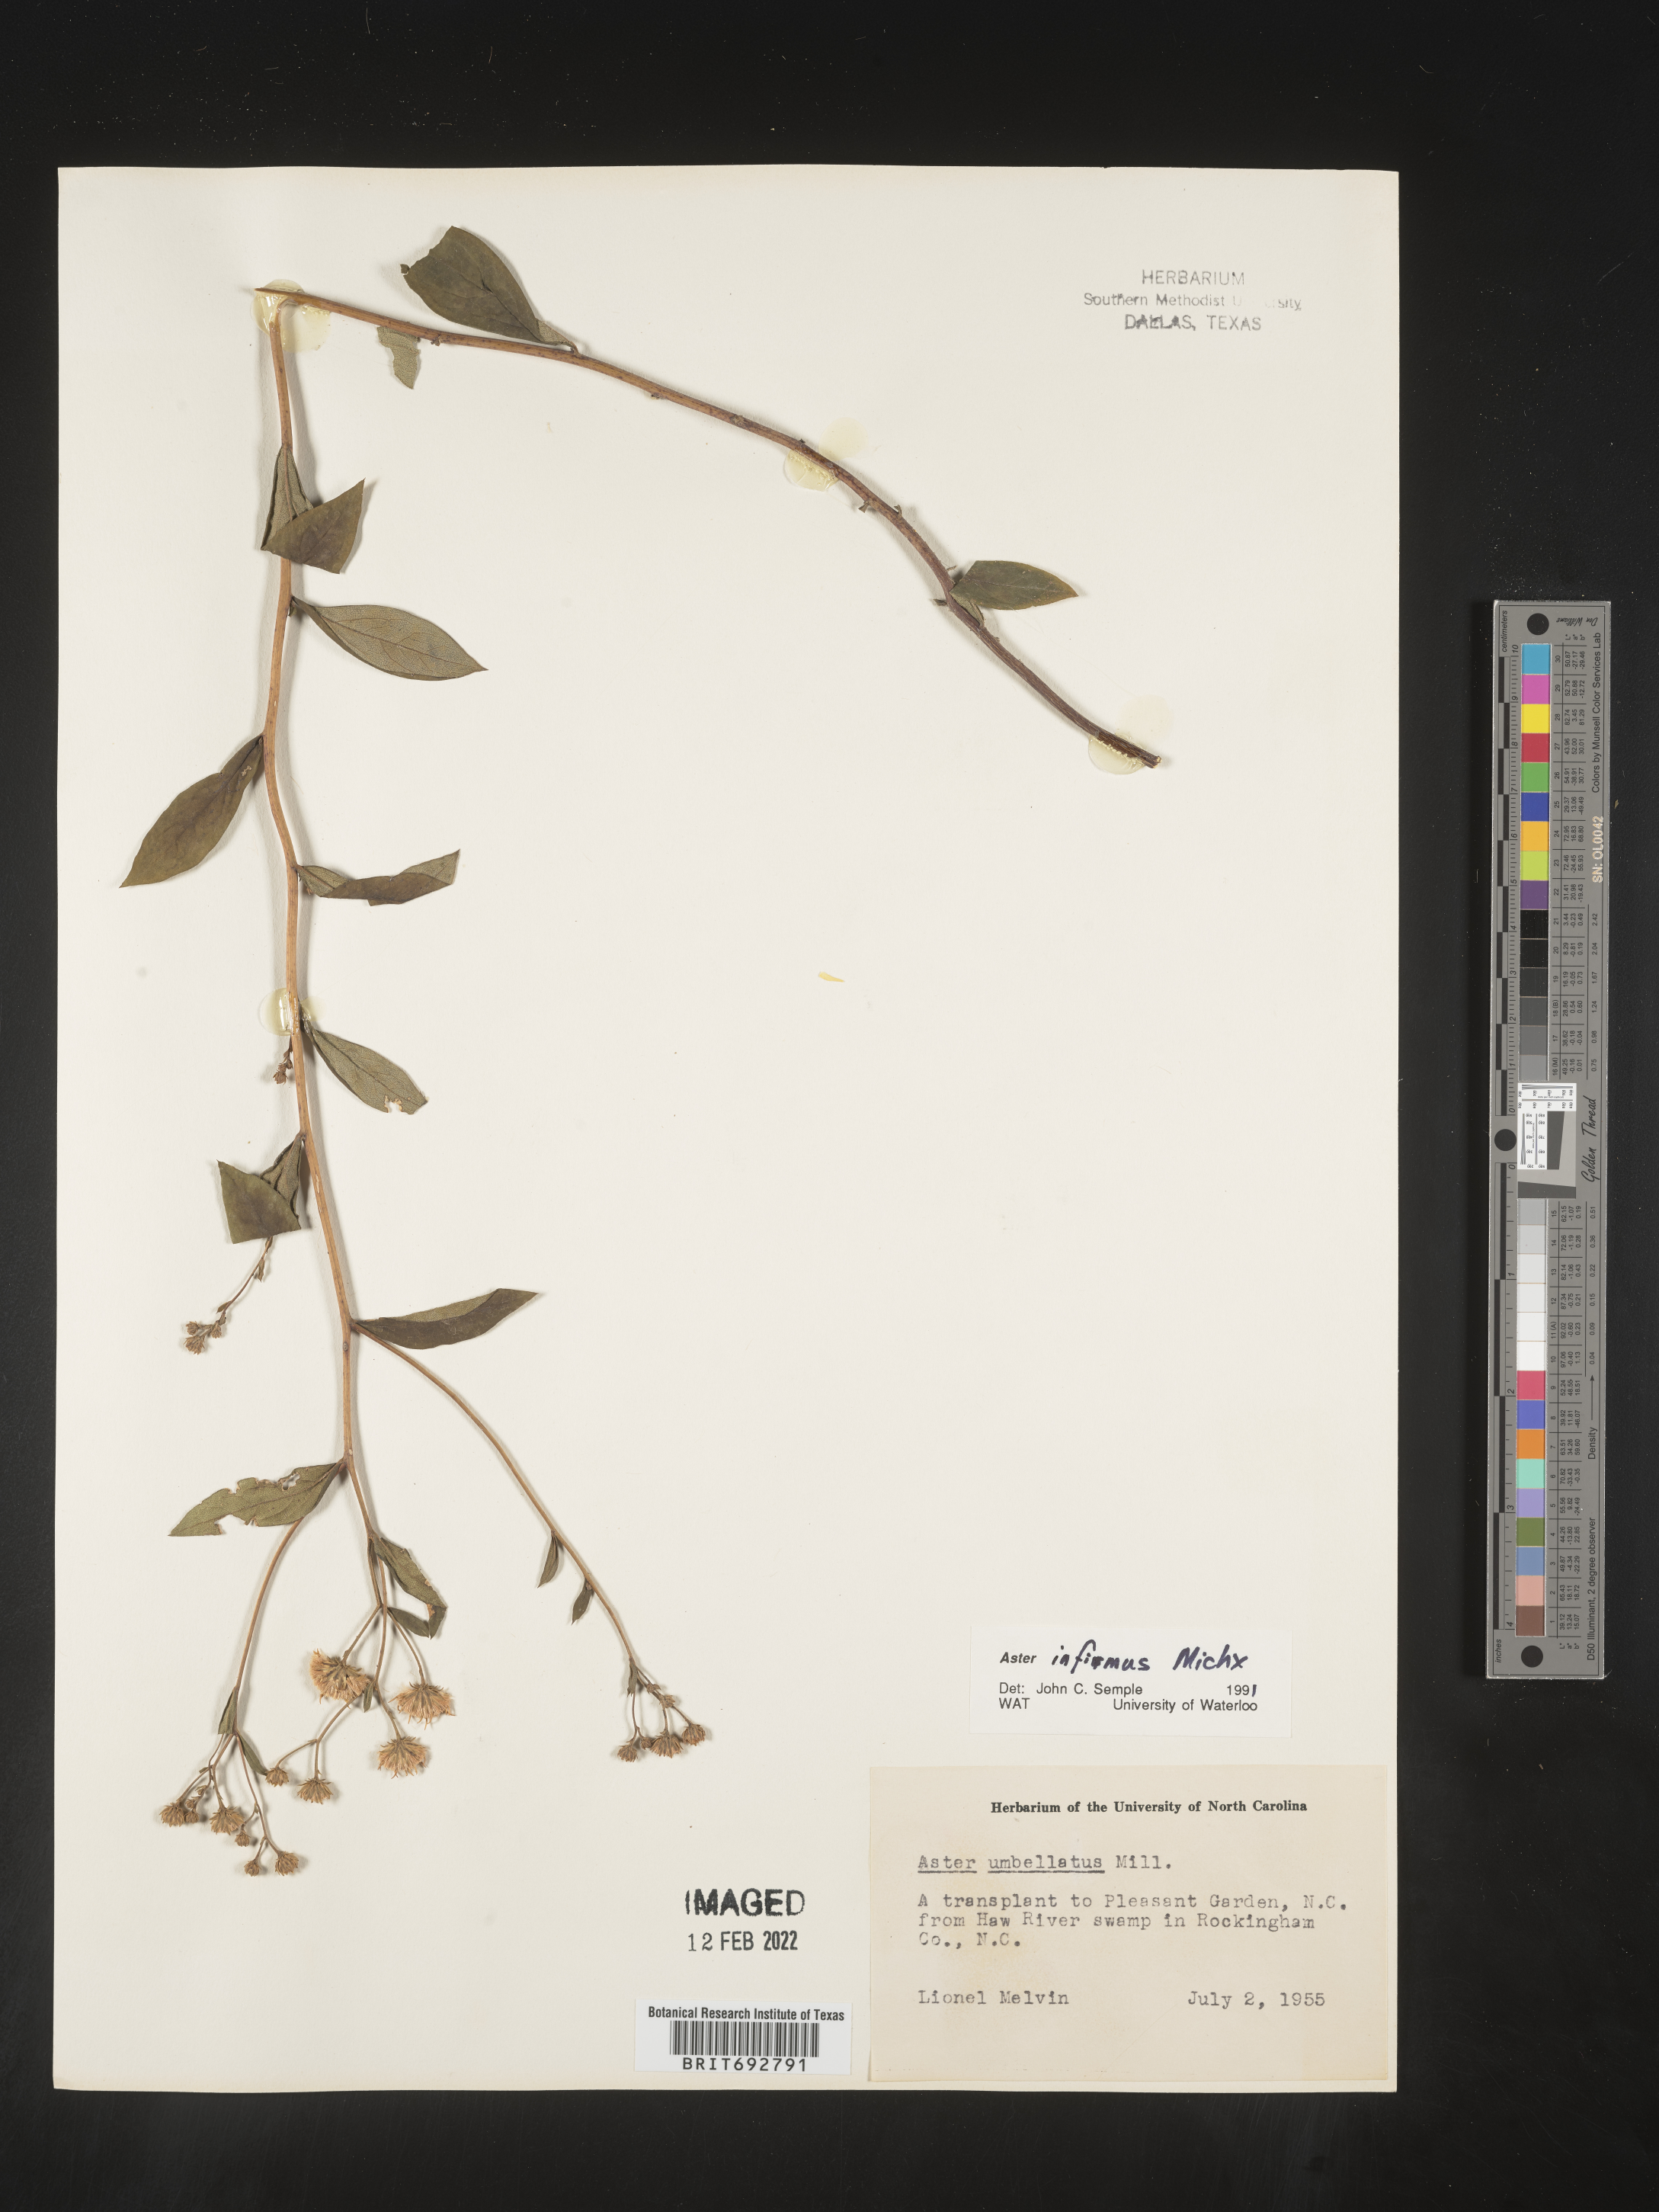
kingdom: Plantae
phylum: Tracheophyta
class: Magnoliopsida
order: Asterales
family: Asteraceae
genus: Doellingeria
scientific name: Doellingeria infirma
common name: Appalachian flat-top aster
